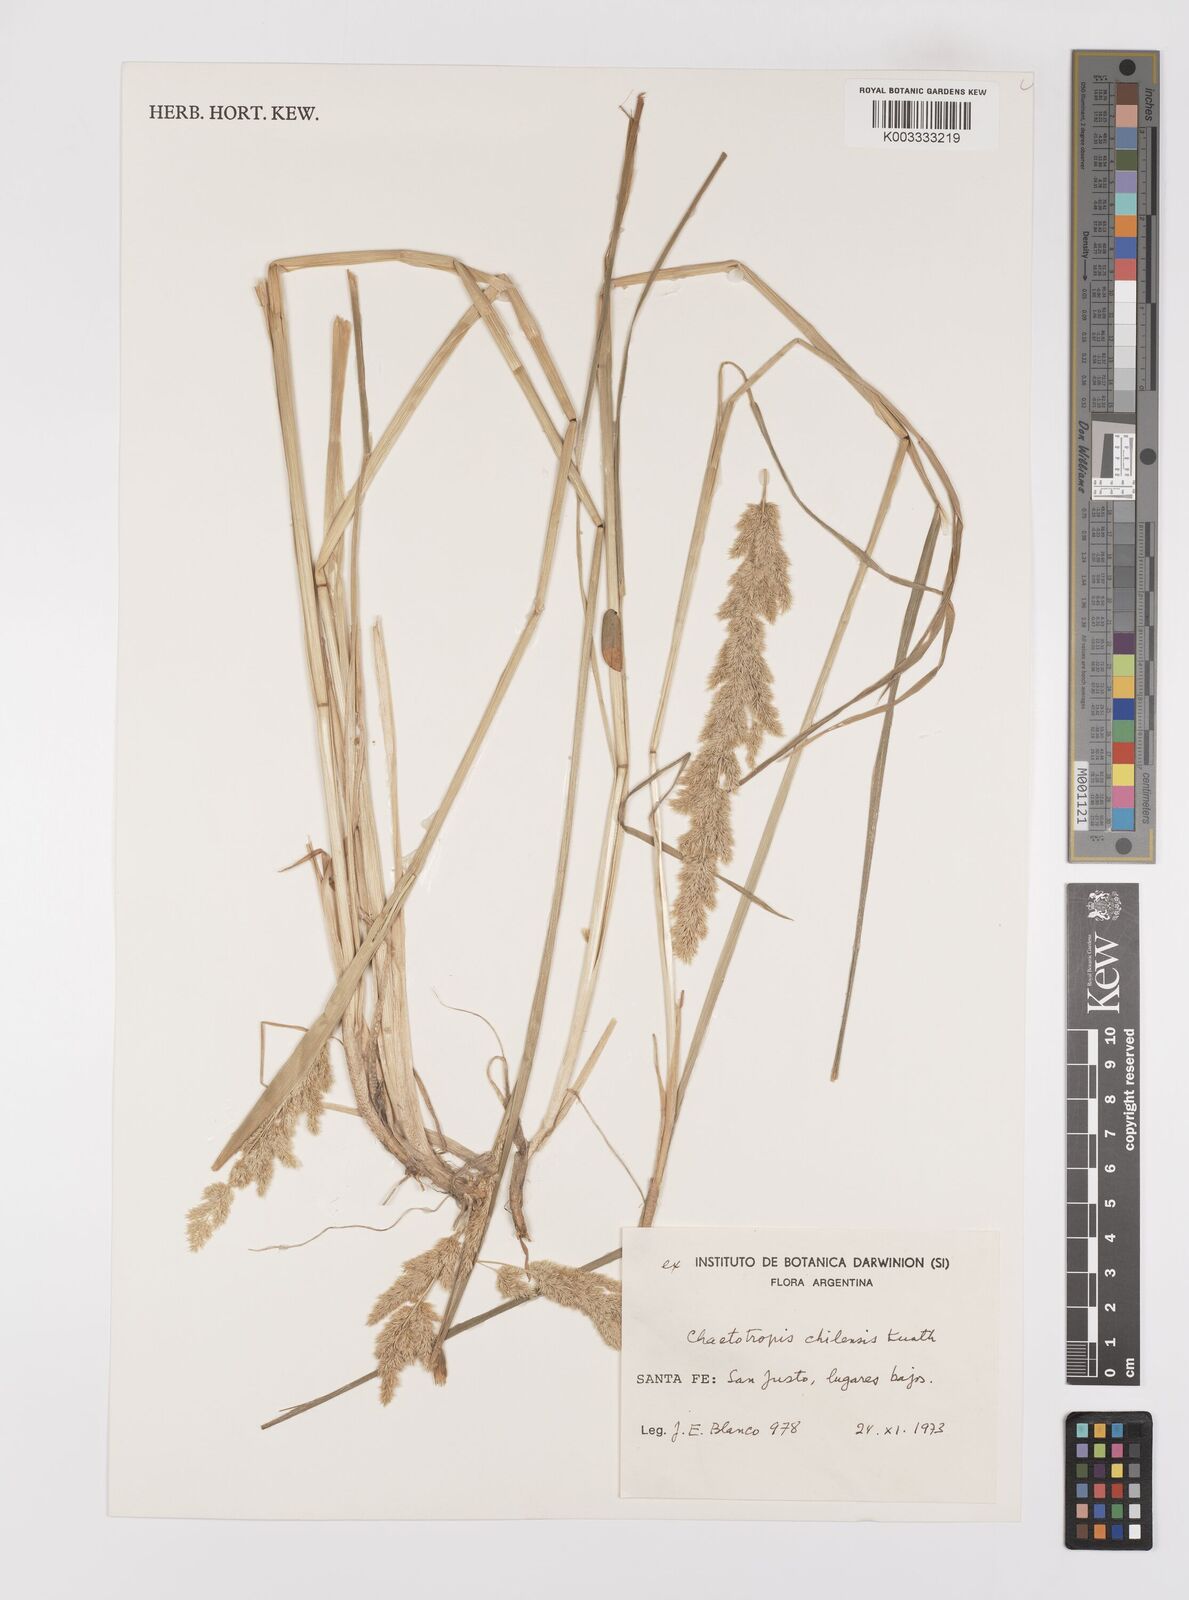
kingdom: Plantae
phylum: Tracheophyta
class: Liliopsida
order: Poales
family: Poaceae
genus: Polypogon
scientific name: Polypogon chilensis
